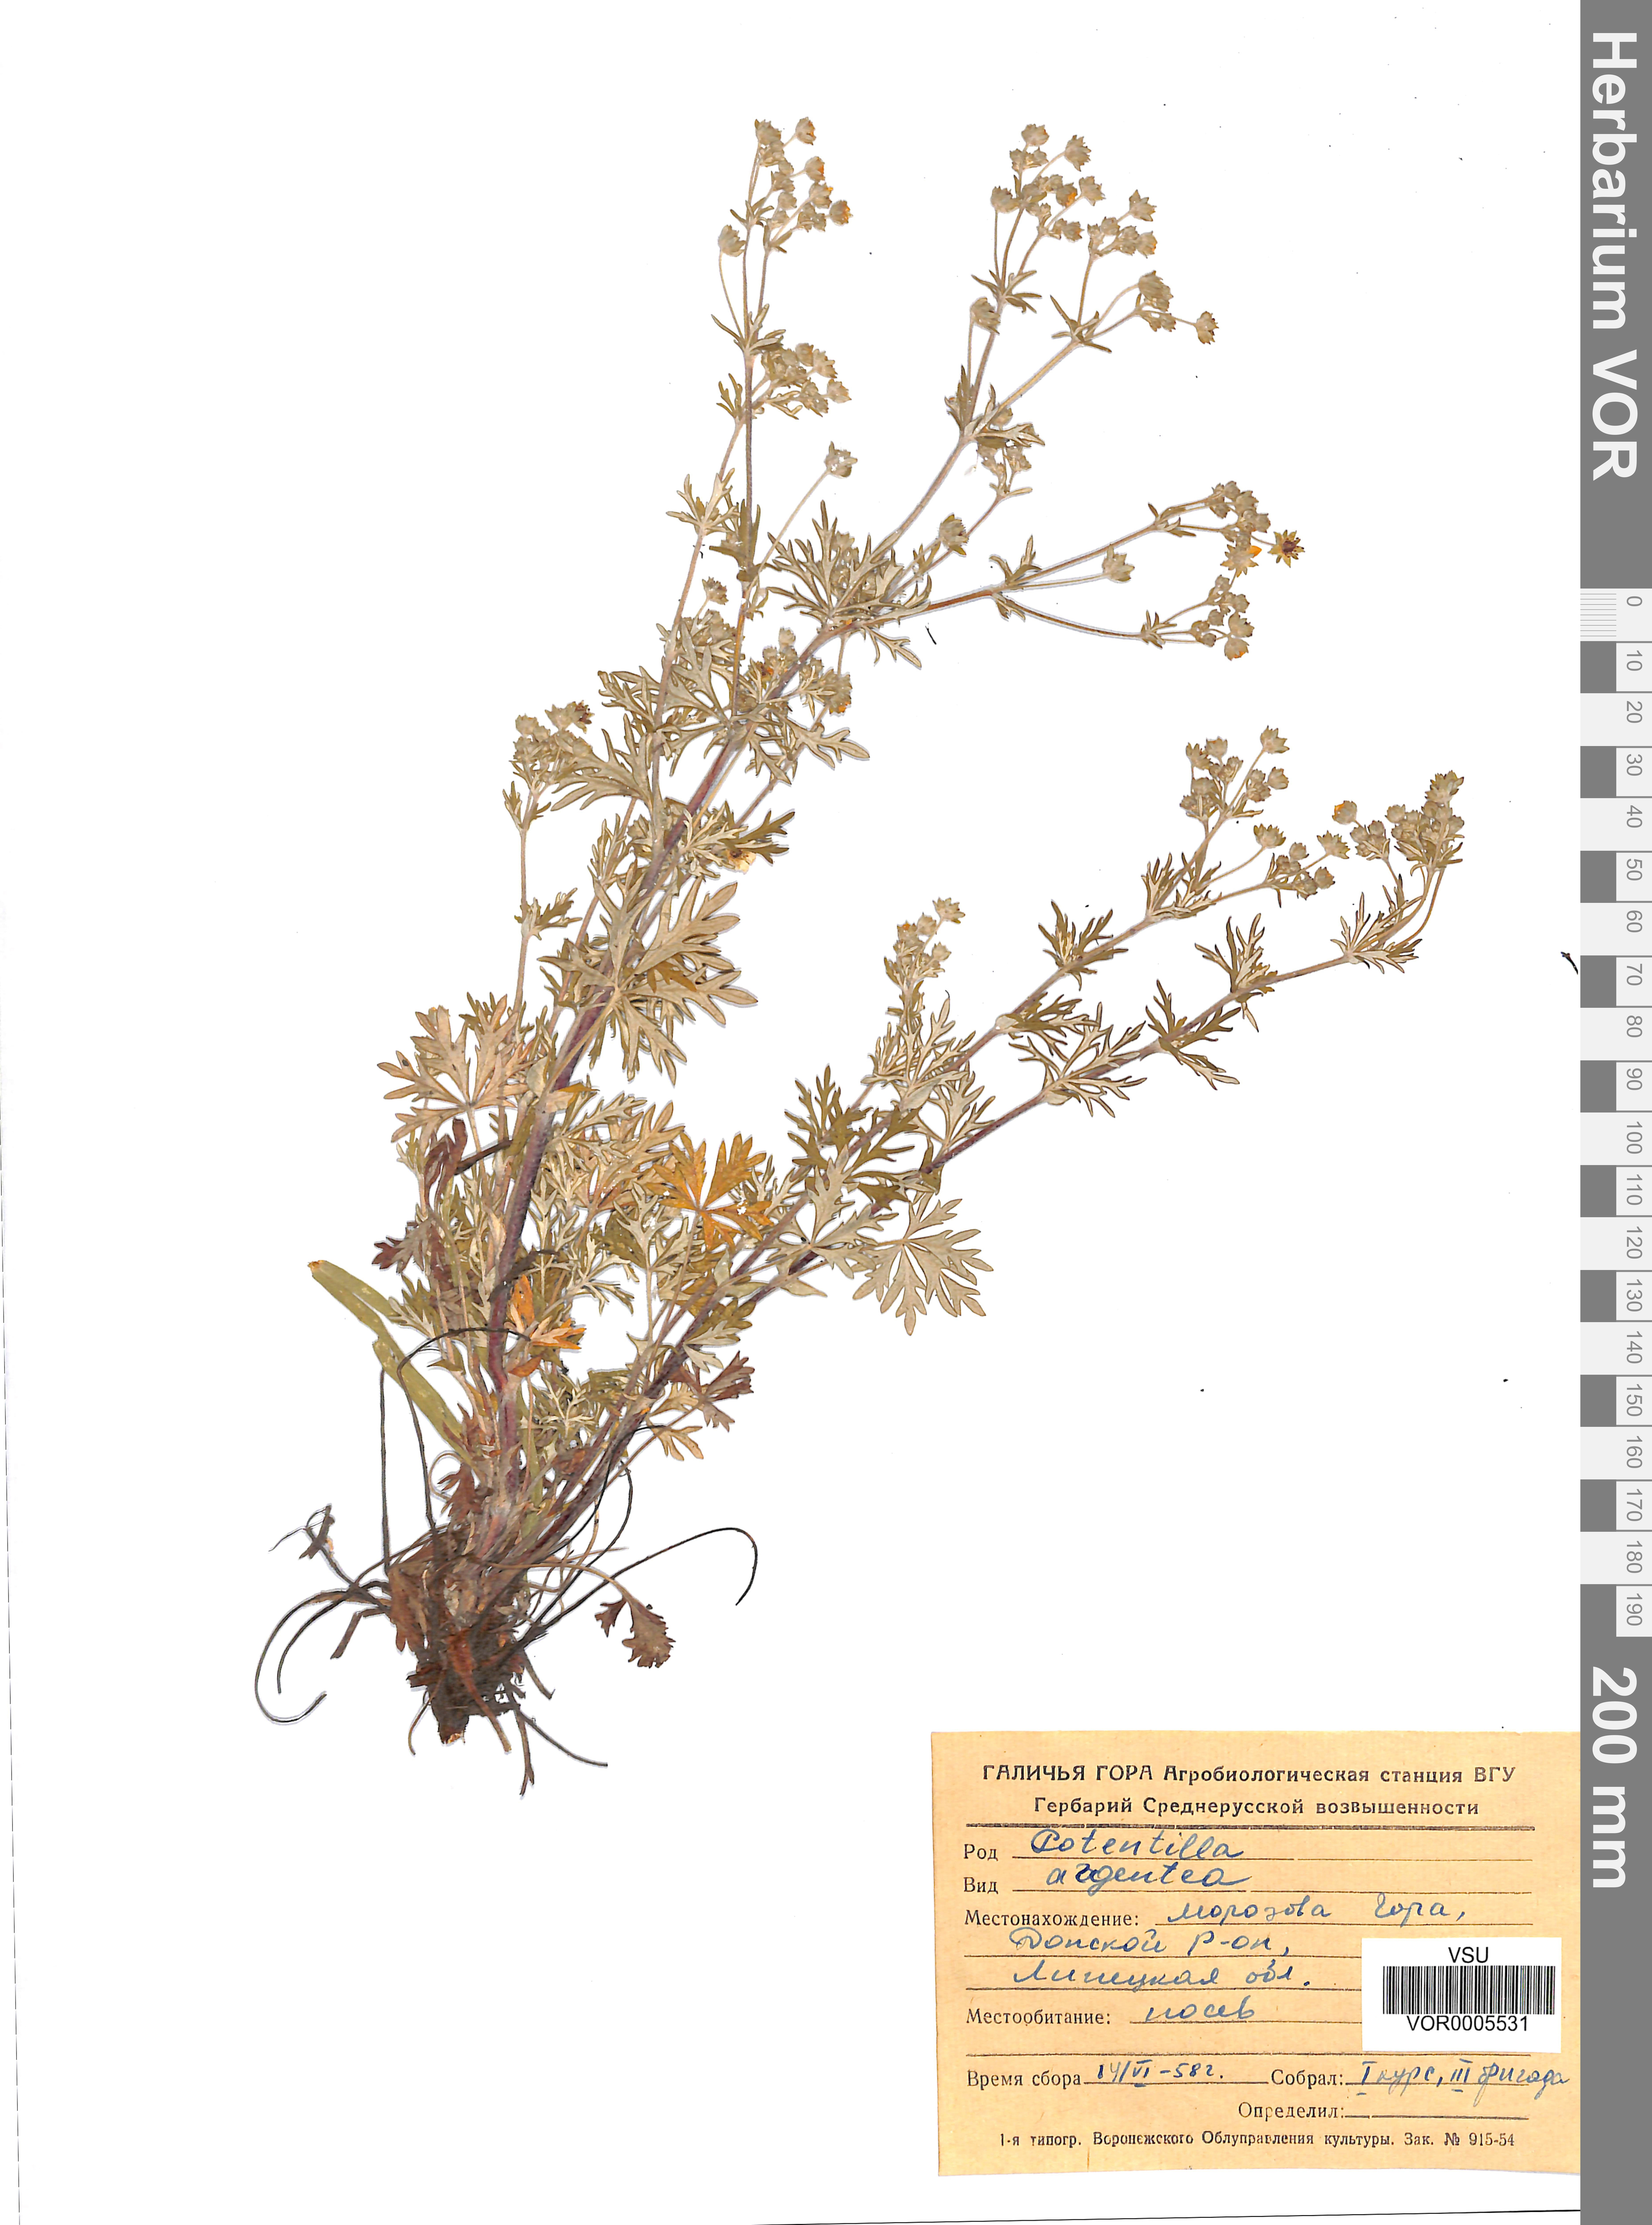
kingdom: Plantae
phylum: Tracheophyta
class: Magnoliopsida
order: Rosales
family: Rosaceae
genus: Potentilla
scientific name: Potentilla argentea
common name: Hoary cinquefoil
